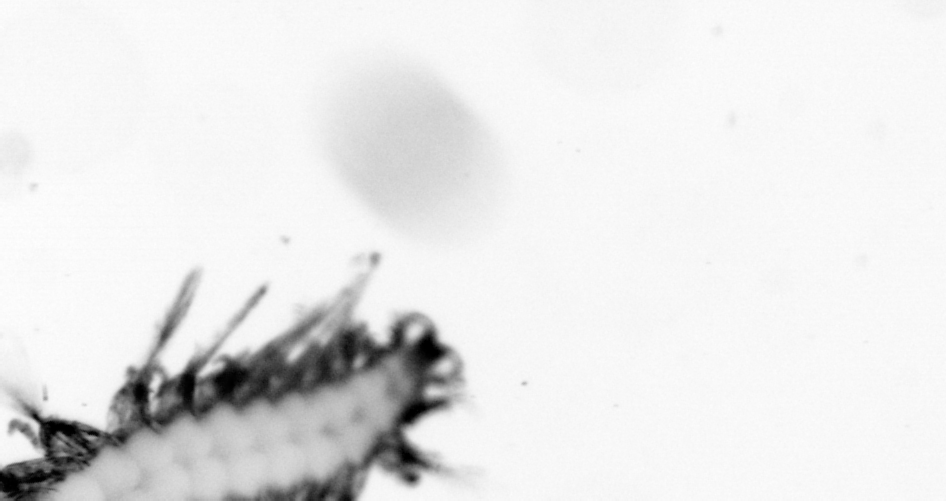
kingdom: Animalia
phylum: Annelida
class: Polychaeta
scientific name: Polychaeta
